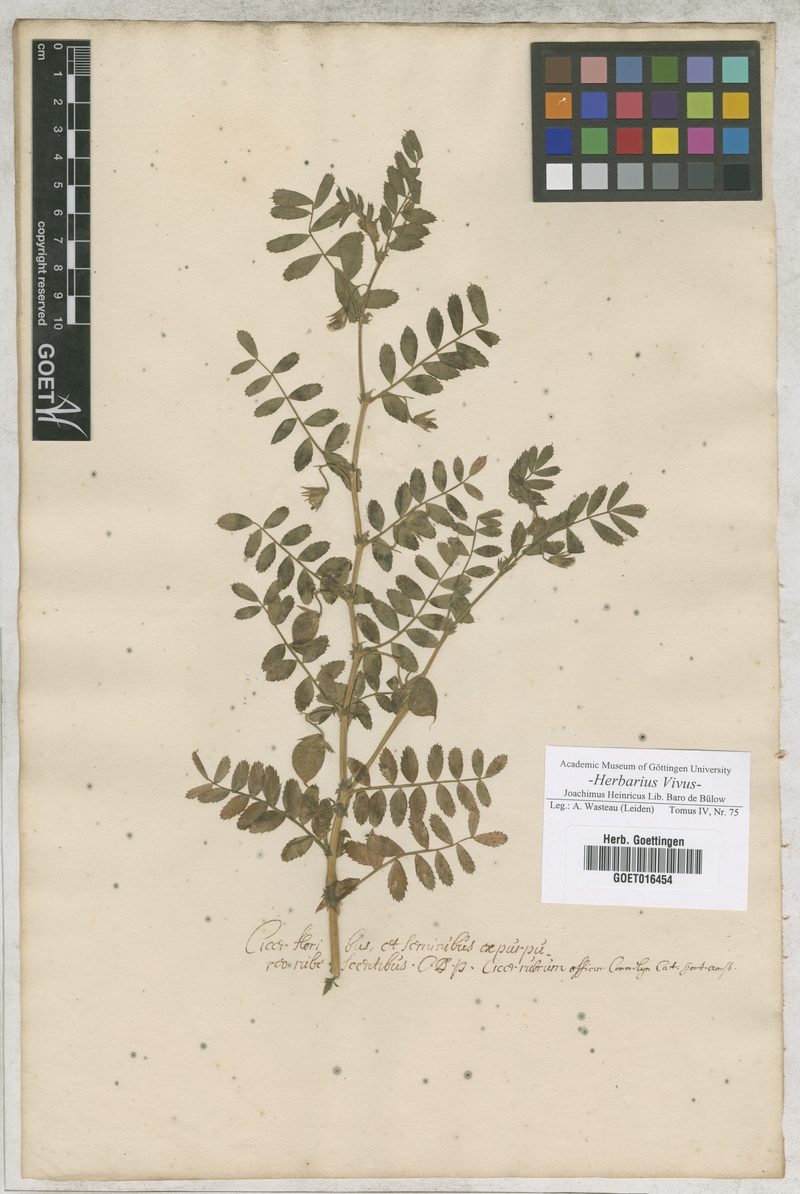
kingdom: Plantae
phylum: Tracheophyta
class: Magnoliopsida
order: Fabales
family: Fabaceae
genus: Cicer
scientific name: Cicer arietinum
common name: Chick pea
